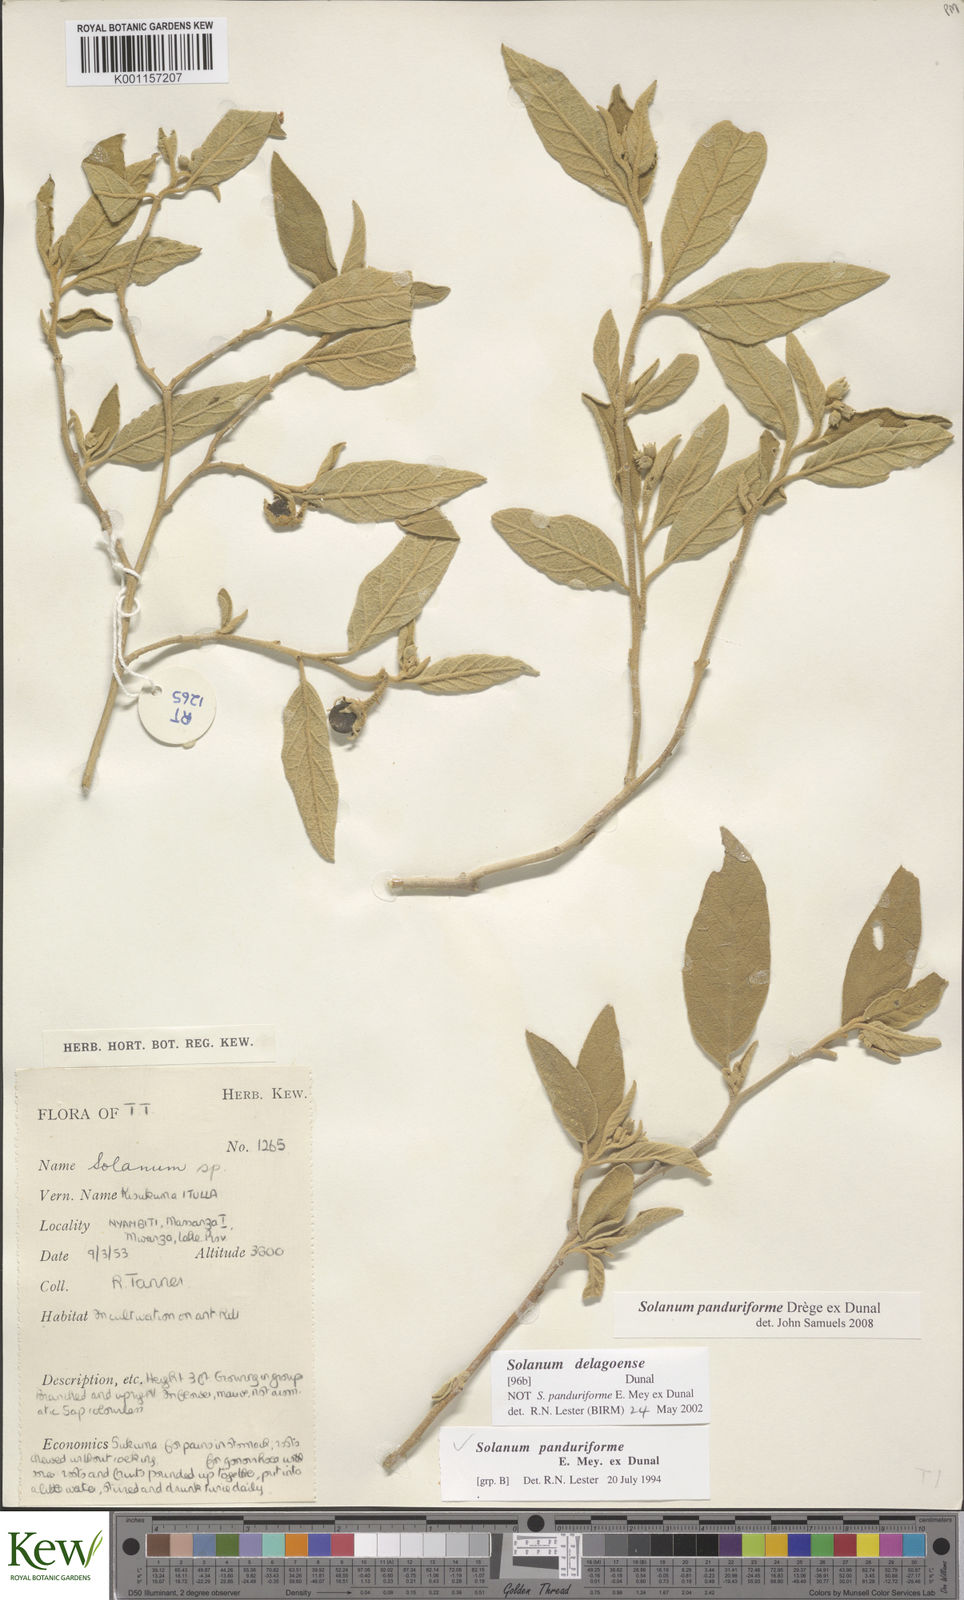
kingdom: Plantae
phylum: Tracheophyta
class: Magnoliopsida
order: Solanales
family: Solanaceae
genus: Solanum
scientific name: Solanum campylacanthum
